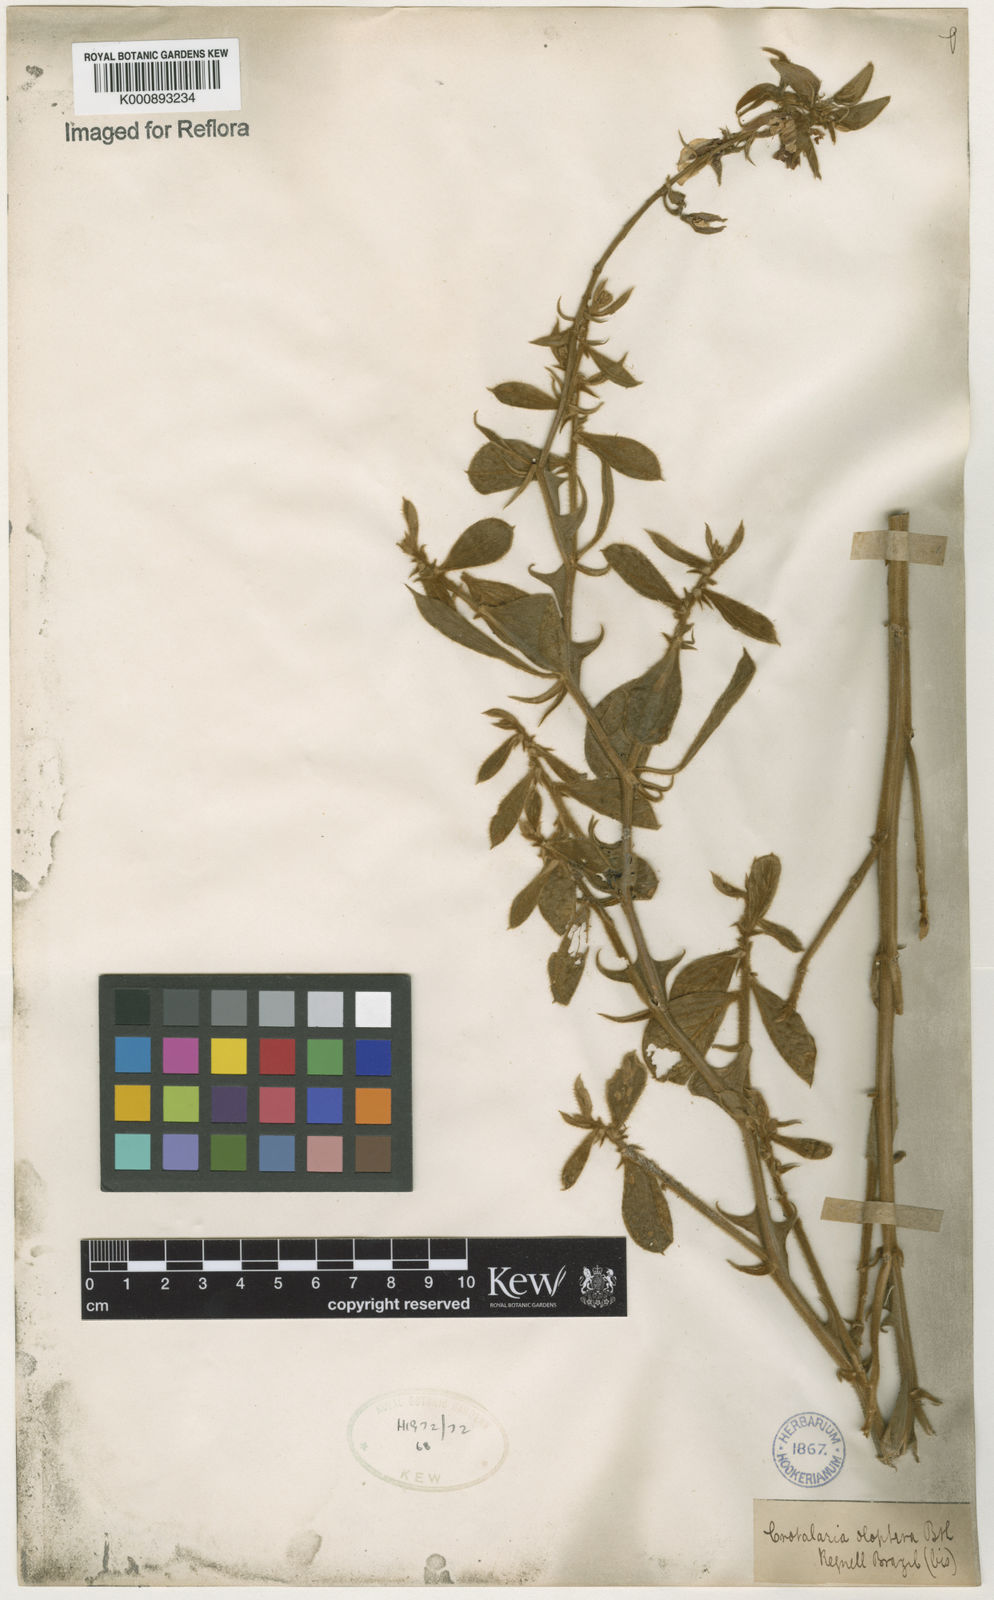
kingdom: Plantae
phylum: Tracheophyta
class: Magnoliopsida
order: Fabales
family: Fabaceae
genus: Crotalaria
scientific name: Crotalaria otoptera
